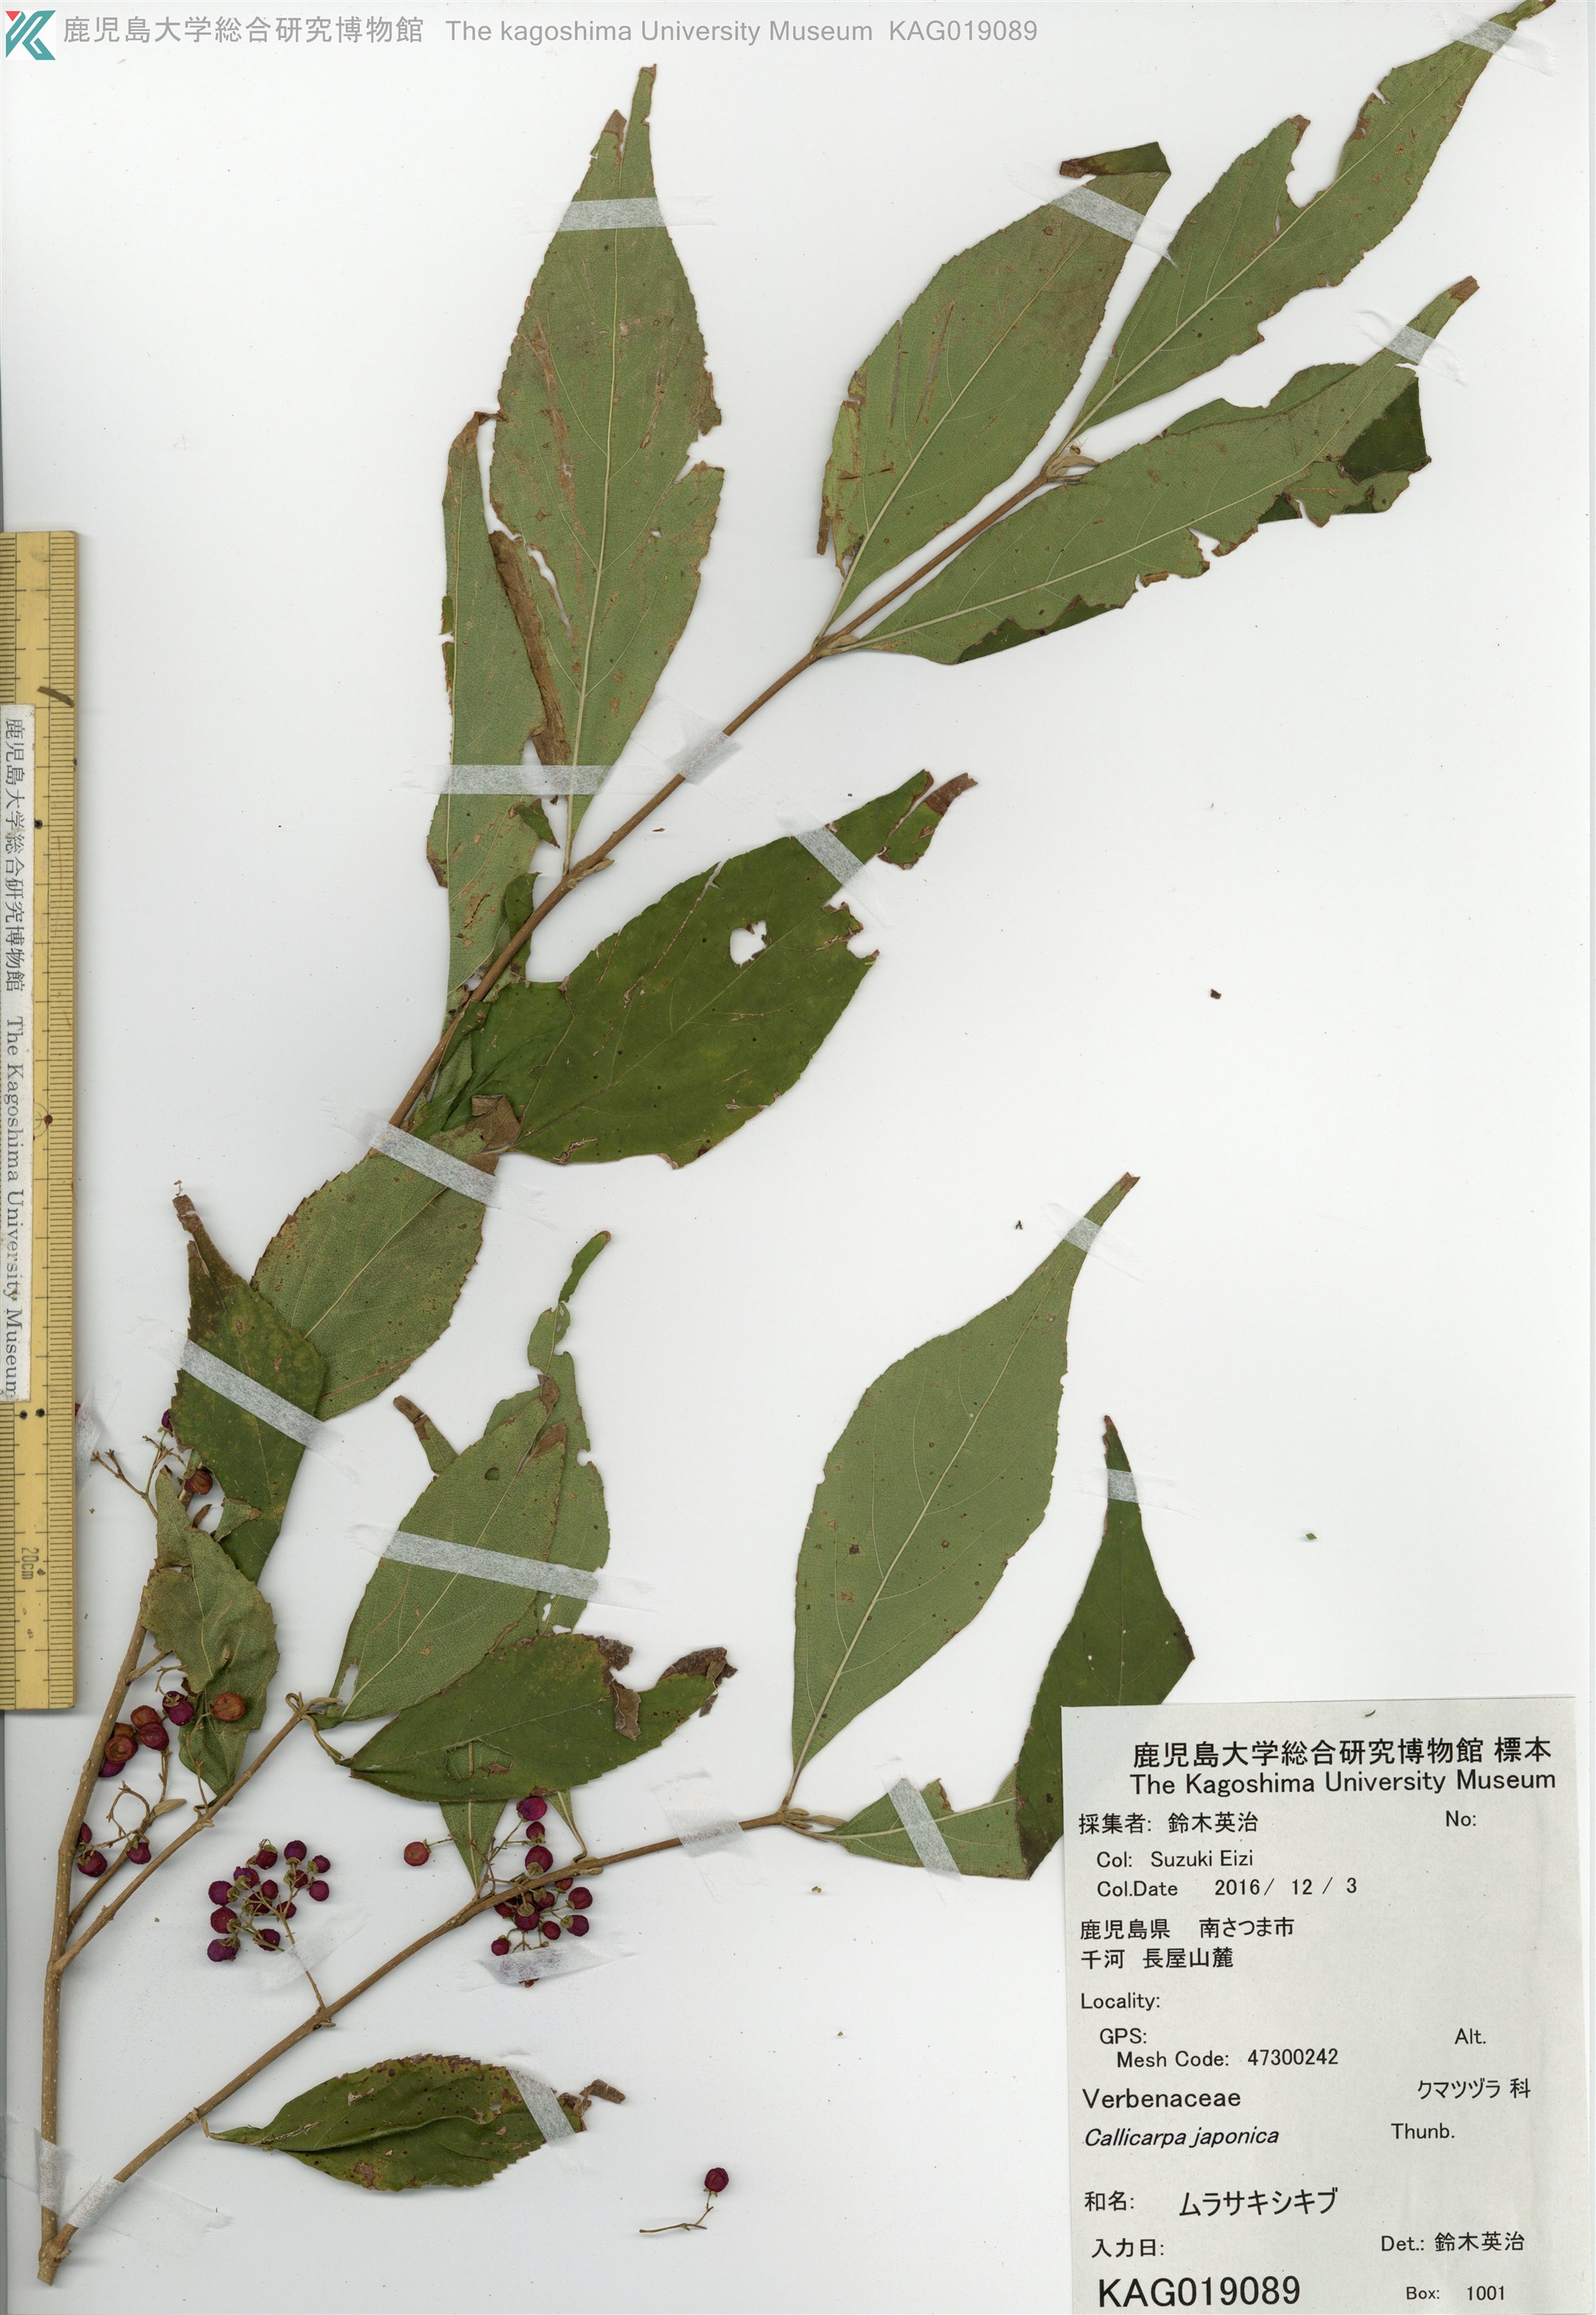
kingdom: Plantae
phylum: Tracheophyta
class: Magnoliopsida
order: Lamiales
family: Lamiaceae
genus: Callicarpa
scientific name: Callicarpa japonica
